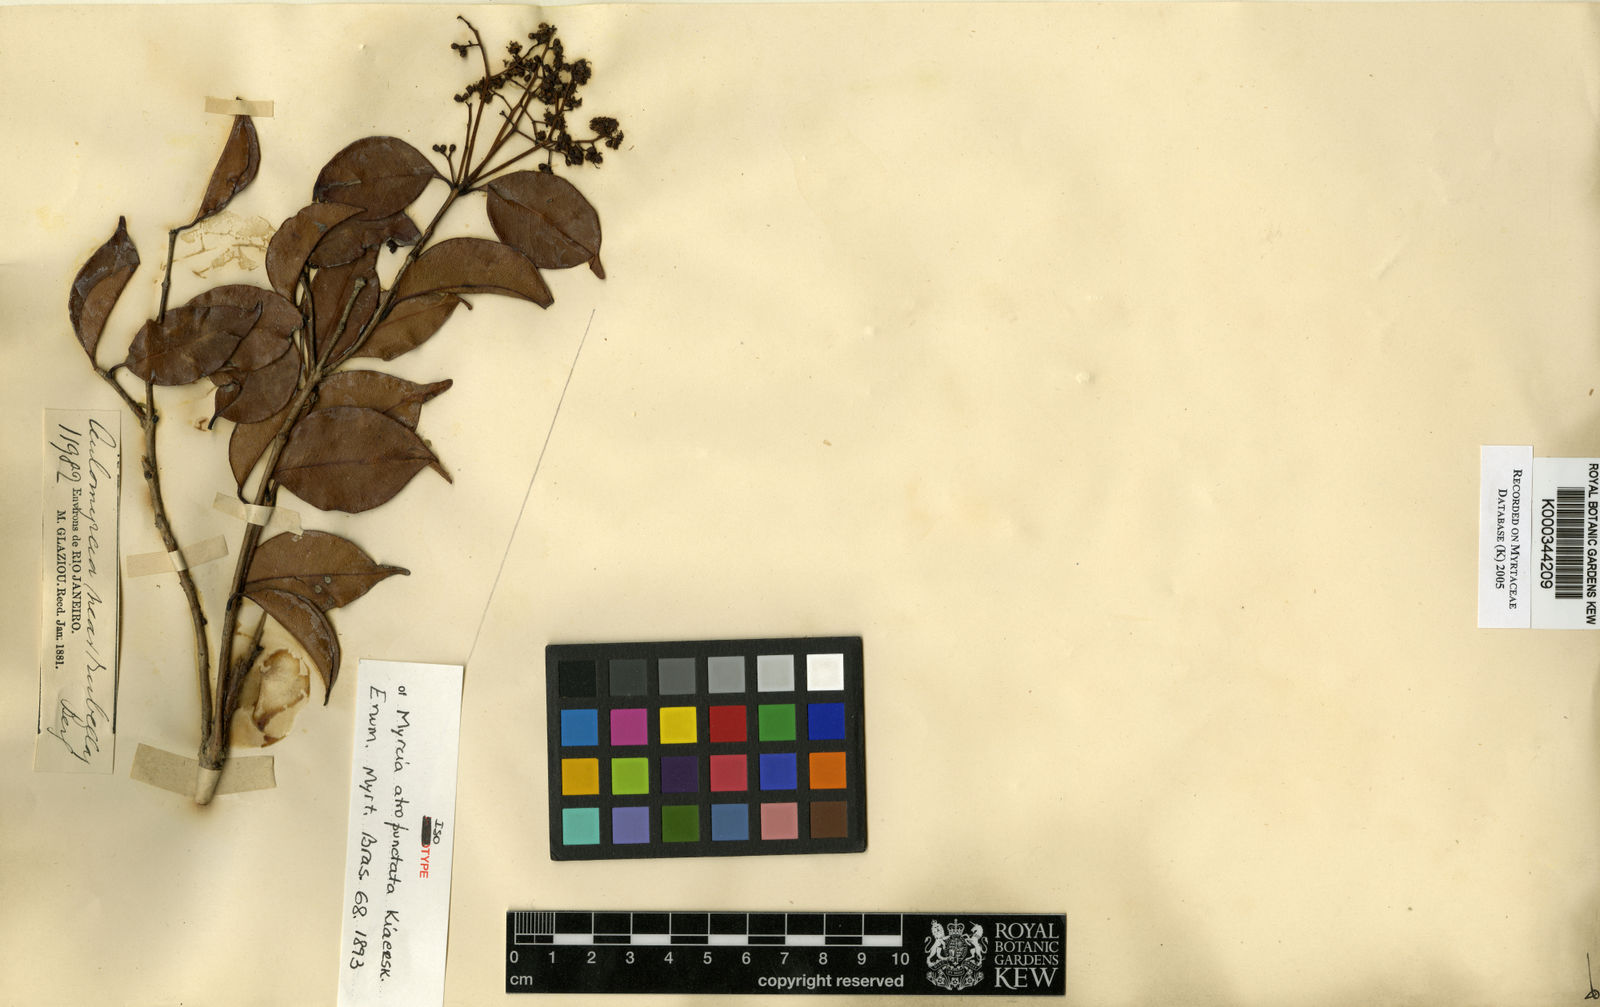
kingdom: Plantae
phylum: Tracheophyta
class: Magnoliopsida
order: Myrtales
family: Myrtaceae
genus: Myrcia
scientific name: Myrcia rubella
